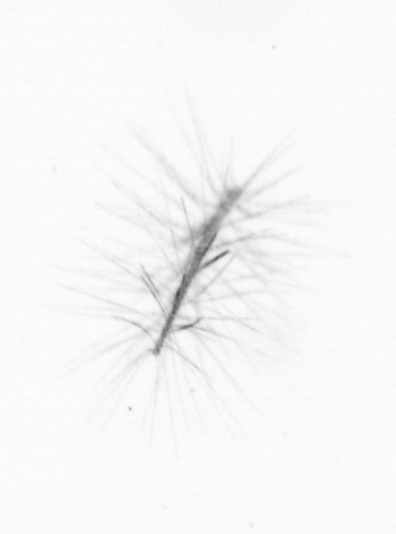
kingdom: Chromista
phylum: Ochrophyta
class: Bacillariophyceae
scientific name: Bacillariophyceae
